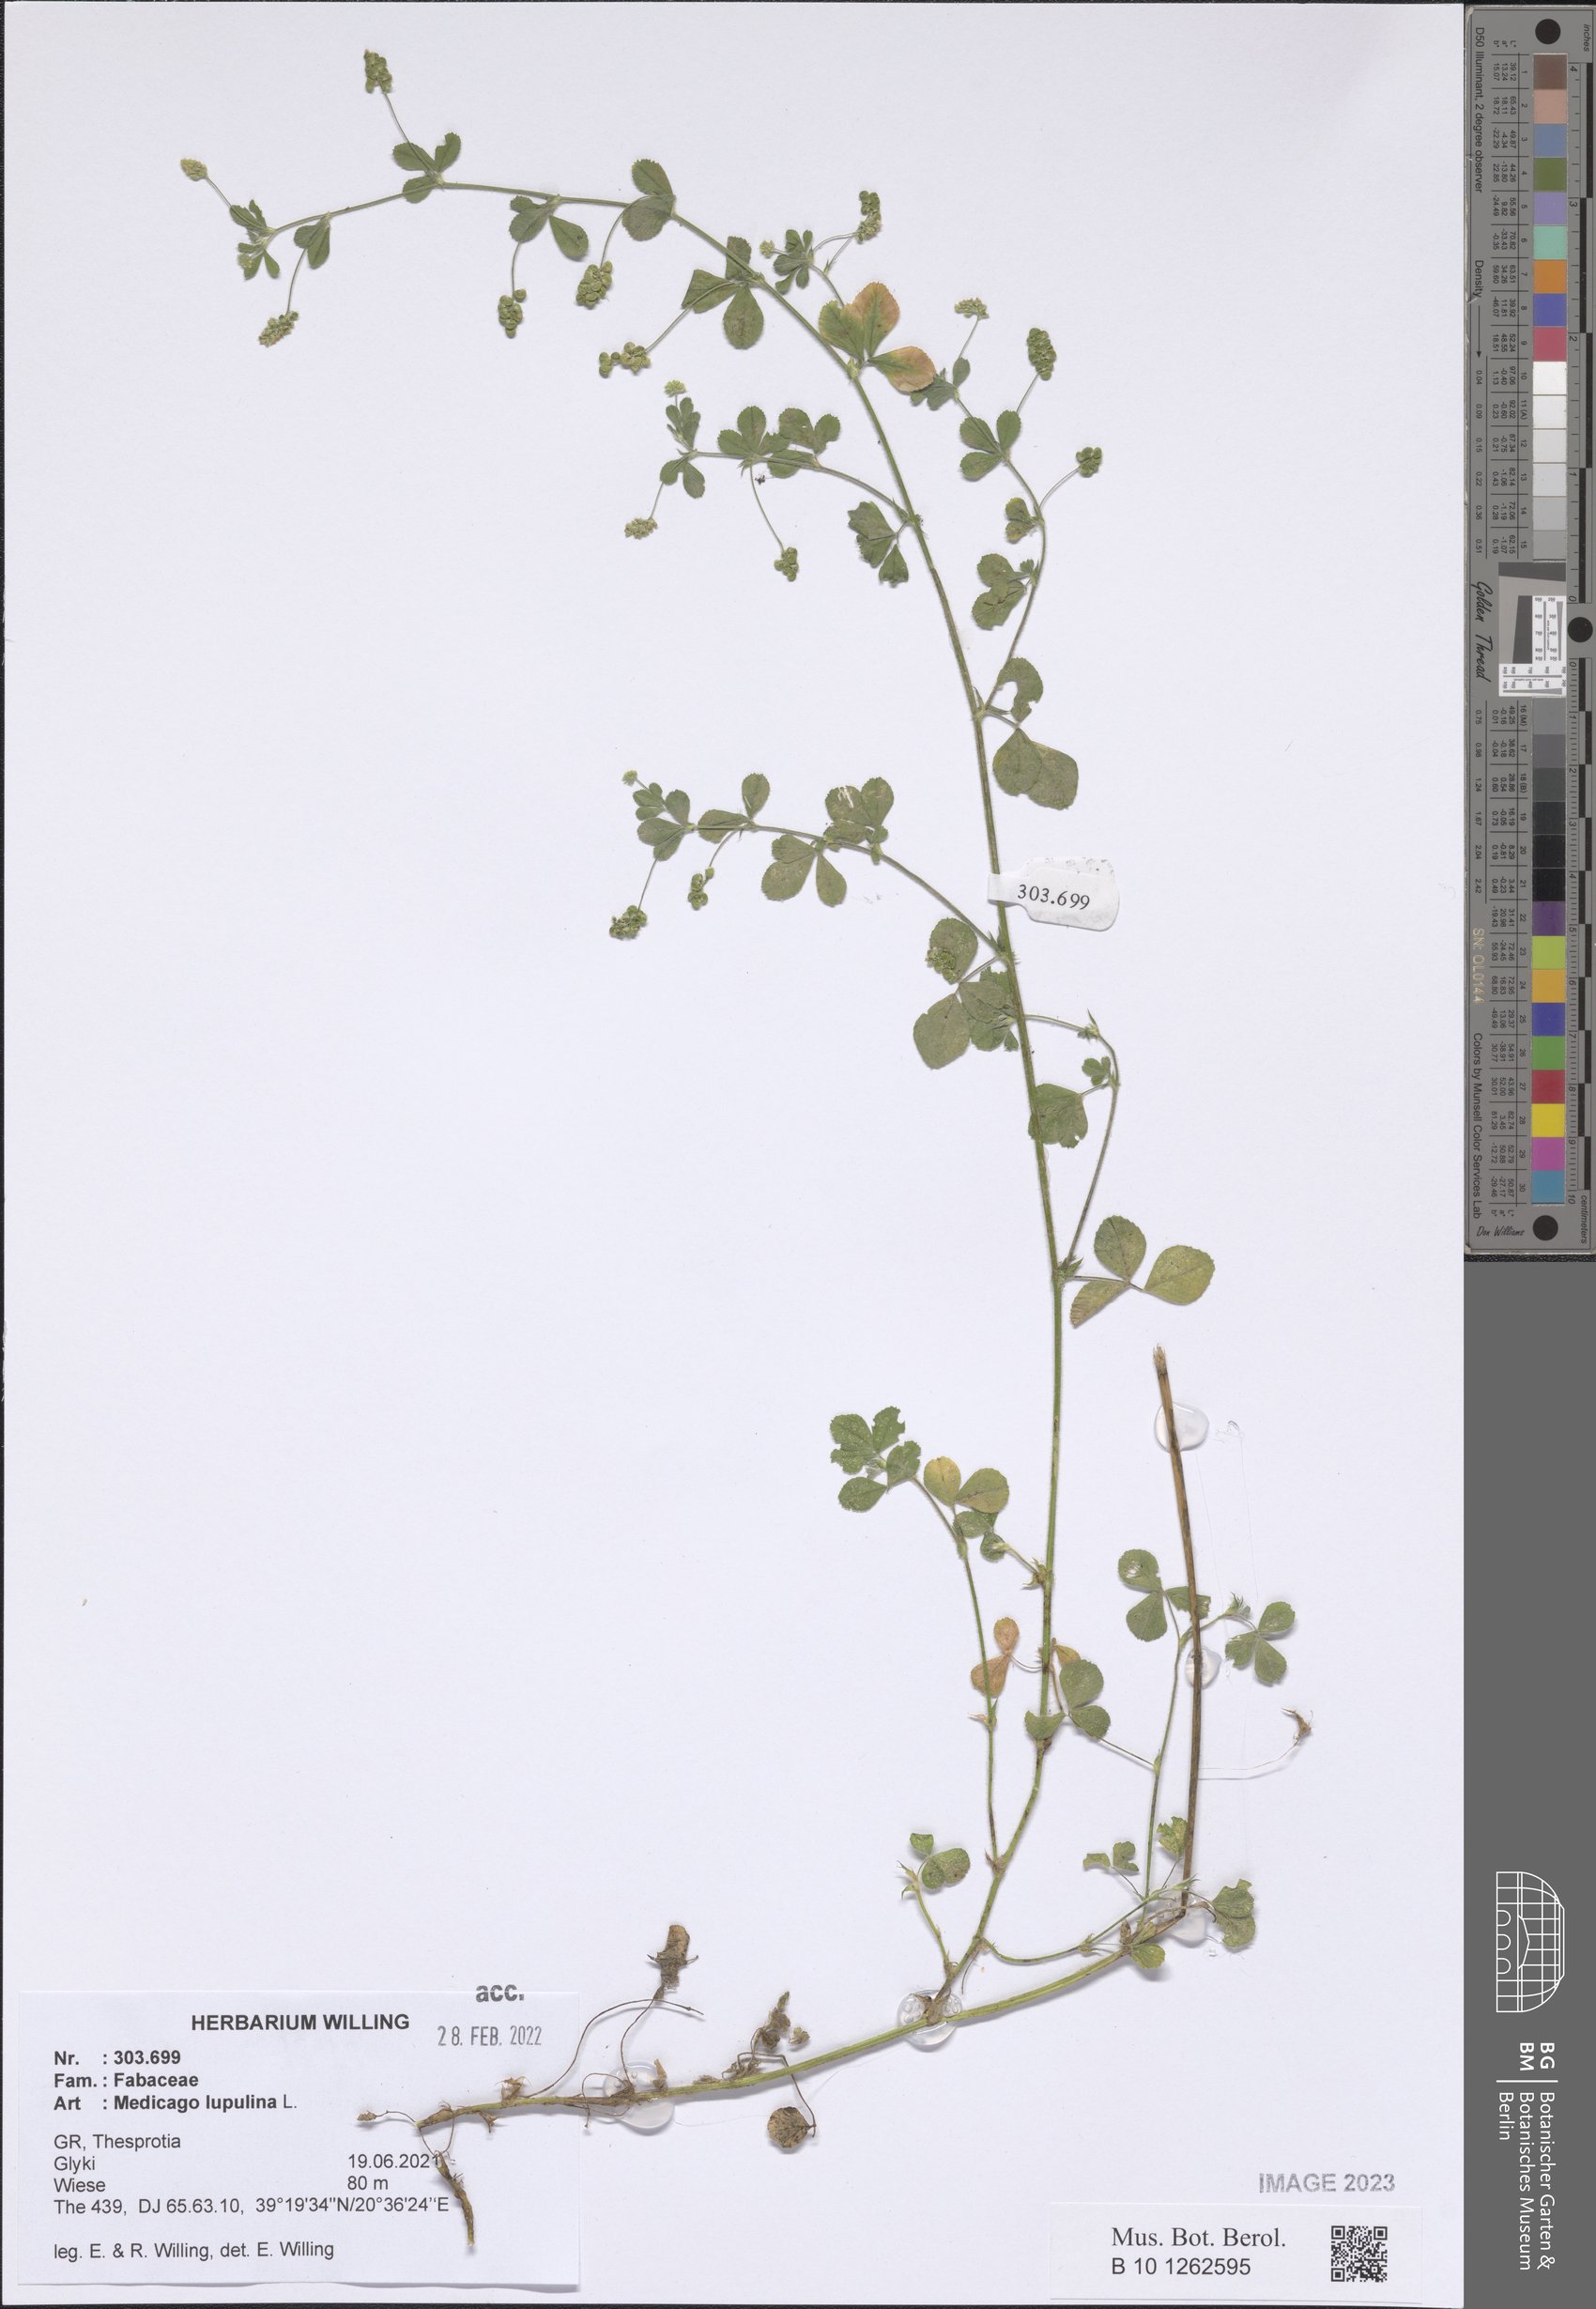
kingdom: Plantae
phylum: Tracheophyta
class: Magnoliopsida
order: Fabales
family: Fabaceae
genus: Medicago
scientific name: Medicago lupulina
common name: Black medick
